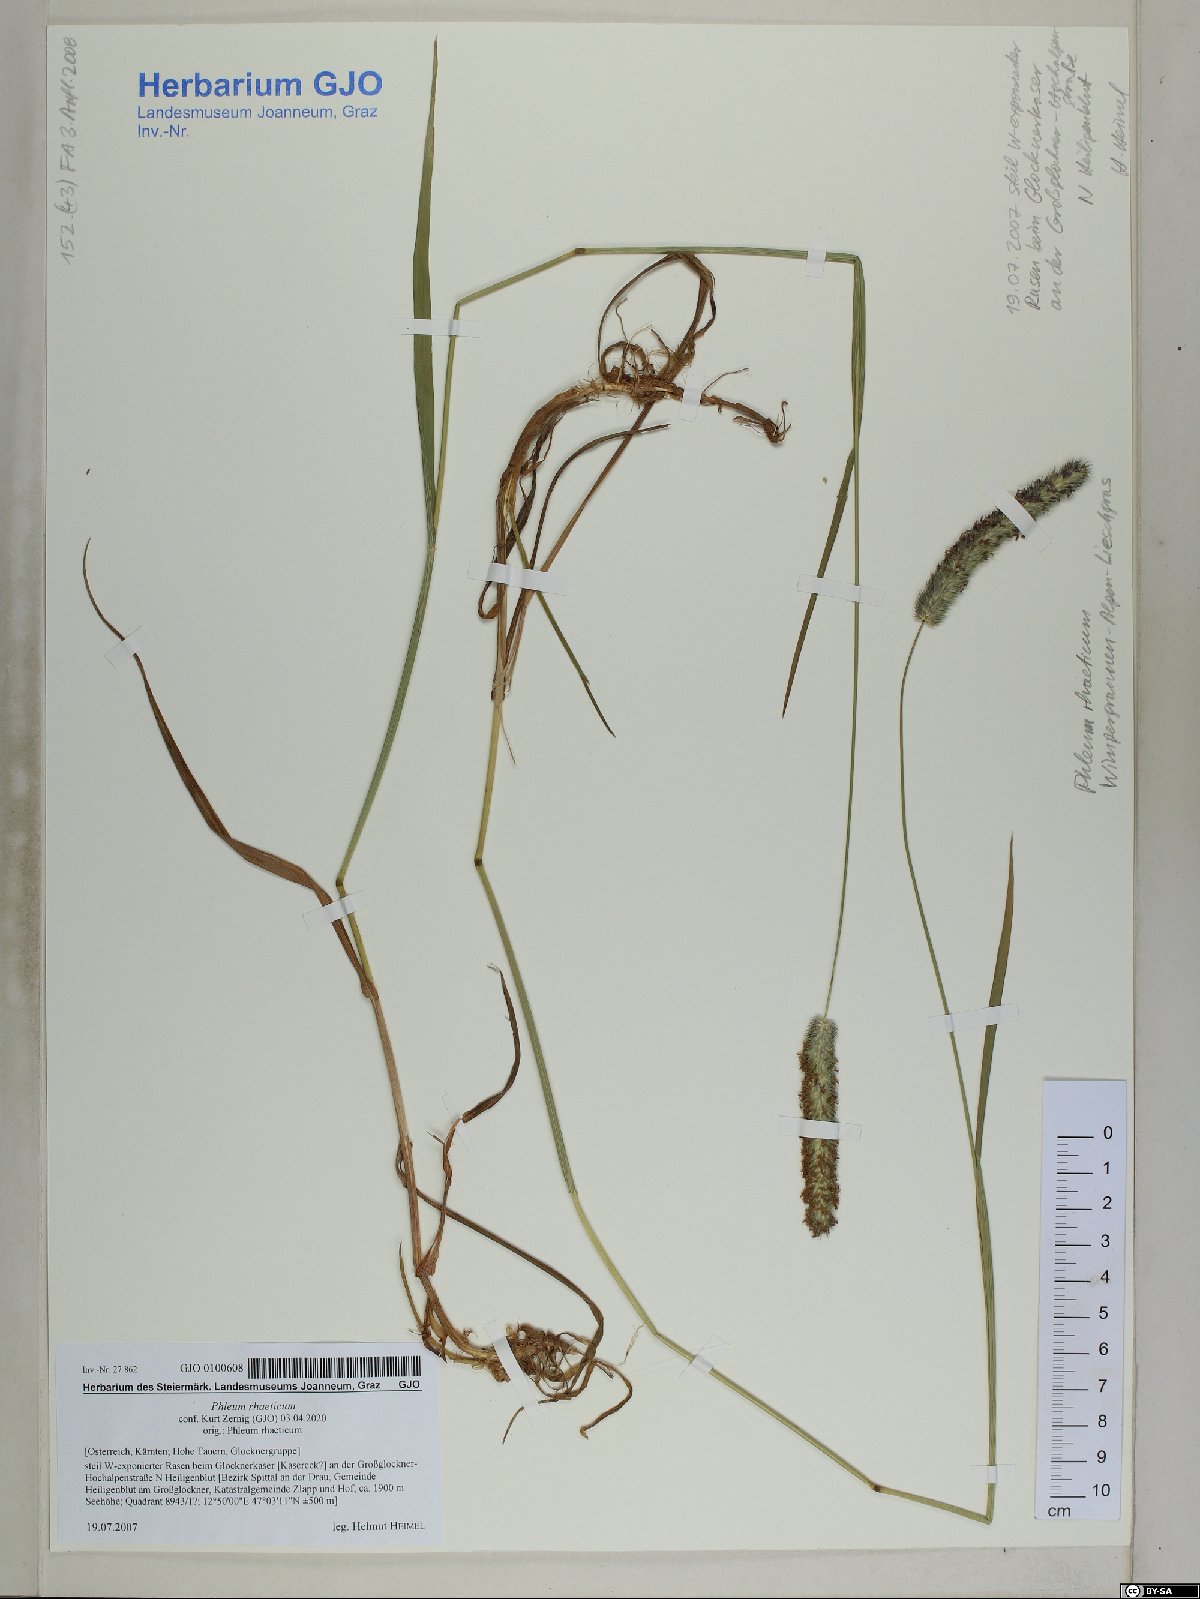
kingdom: Plantae
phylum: Tracheophyta
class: Liliopsida
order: Poales
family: Poaceae
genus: Phleum
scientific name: Phleum alpinum
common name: Alpine cat's-tail
